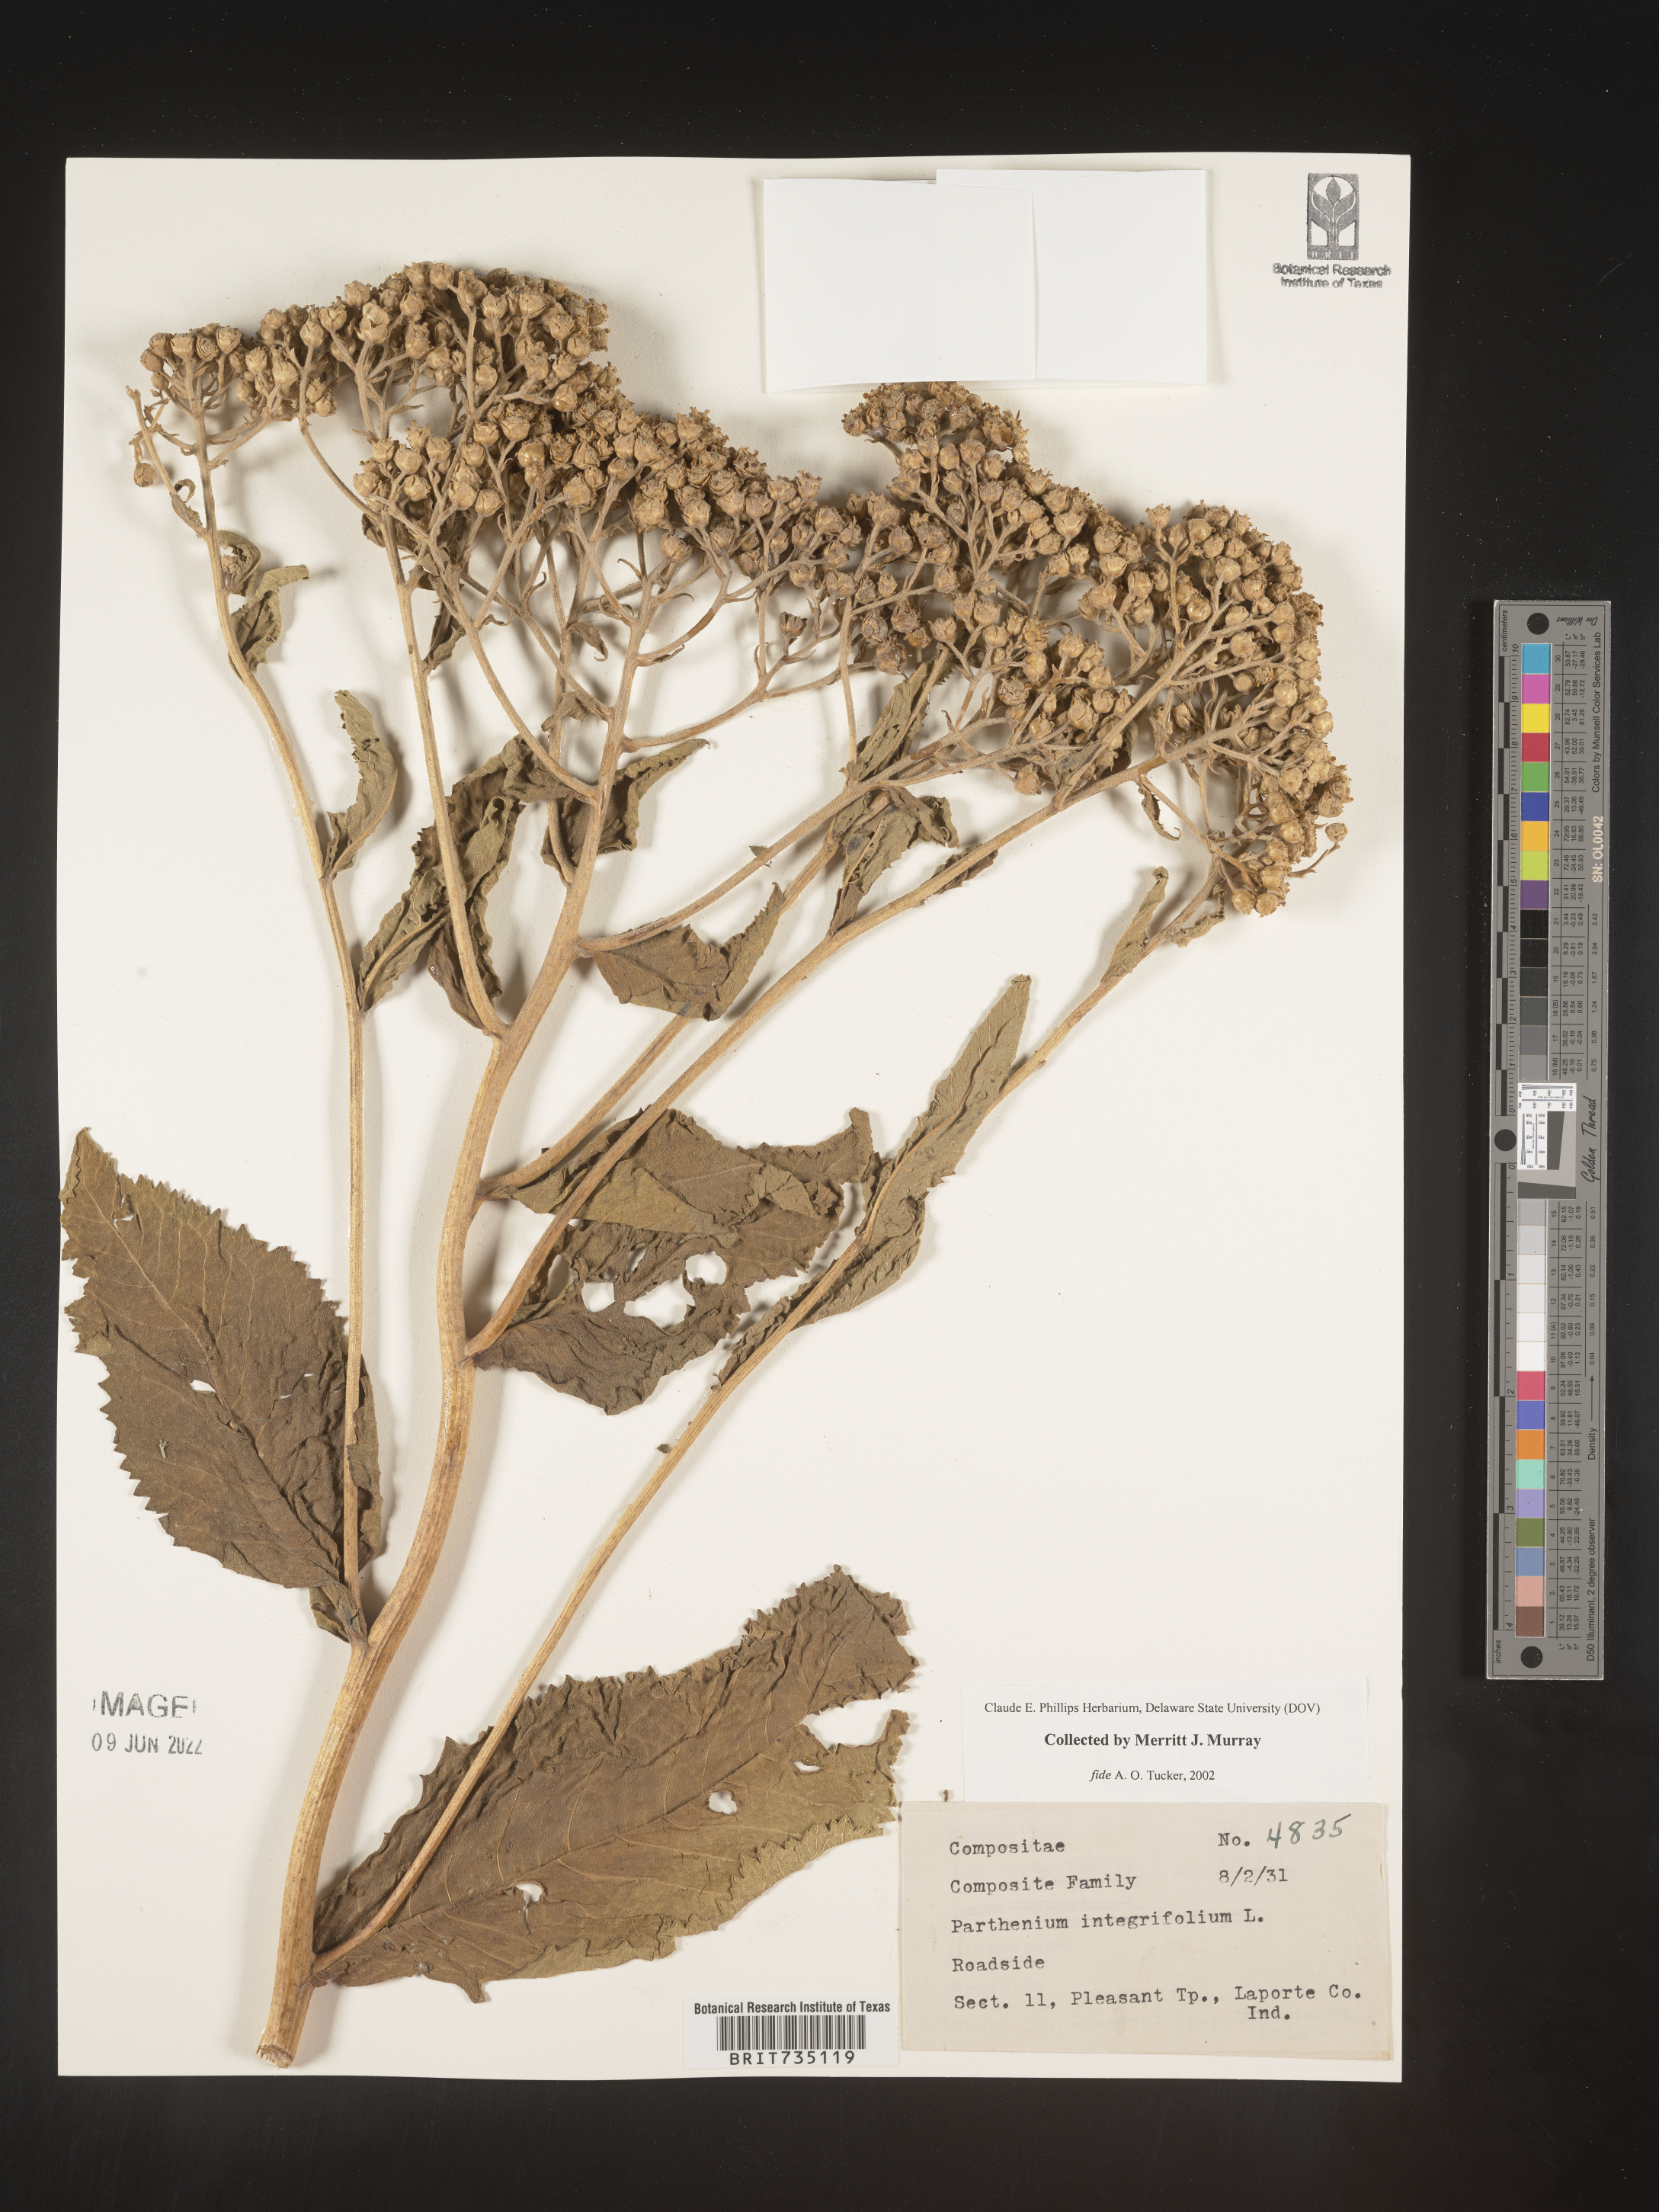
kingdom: Plantae
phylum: Tracheophyta
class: Magnoliopsida
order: Asterales
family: Asteraceae
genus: Parthenium
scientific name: Parthenium integrifolium
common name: American feverfew
